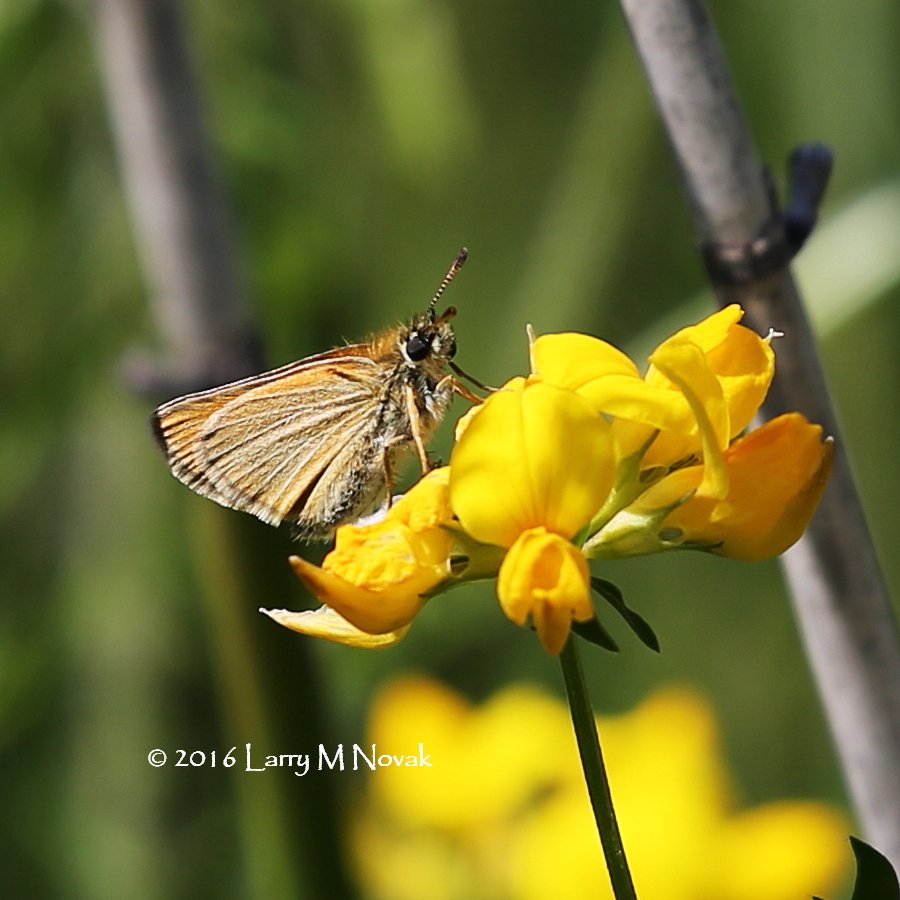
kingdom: Animalia
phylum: Arthropoda
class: Insecta
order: Lepidoptera
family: Hesperiidae
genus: Thymelicus
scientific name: Thymelicus lineola
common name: European Skipper
